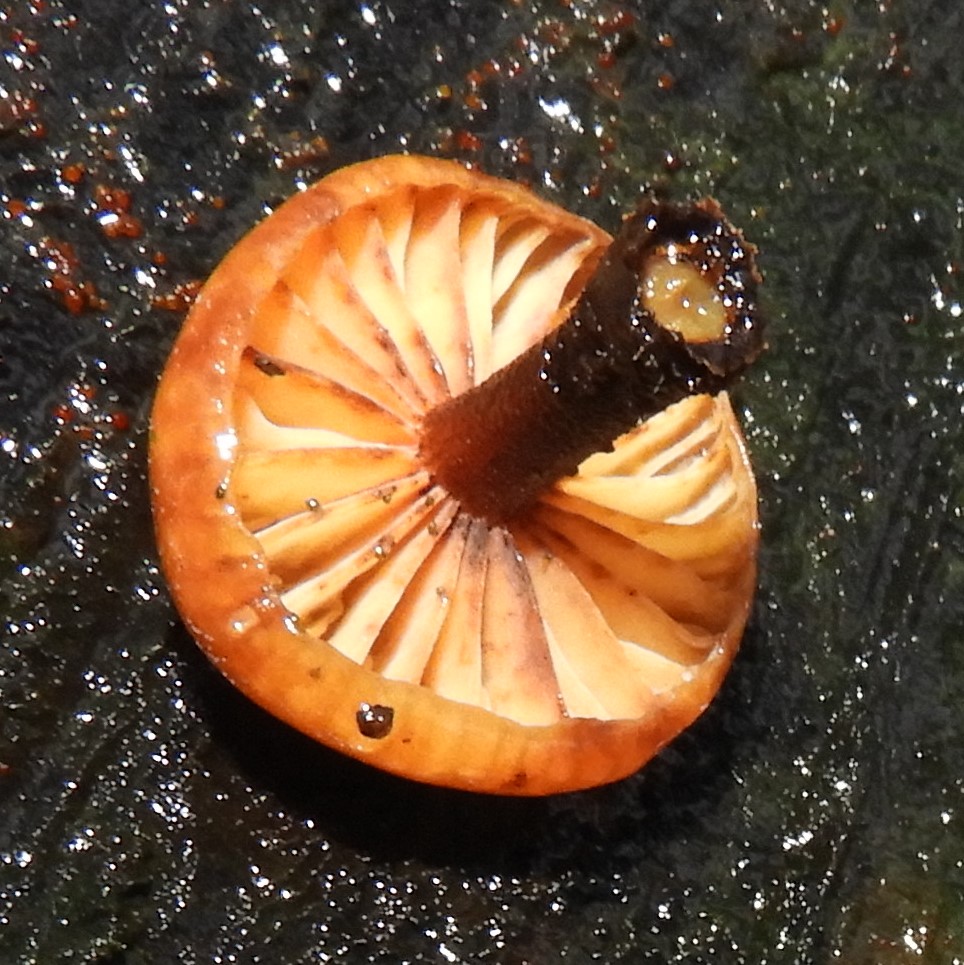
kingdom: Fungi
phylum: Basidiomycota
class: Agaricomycetes
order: Agaricales
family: Physalacriaceae
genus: Flammulina
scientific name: Flammulina
